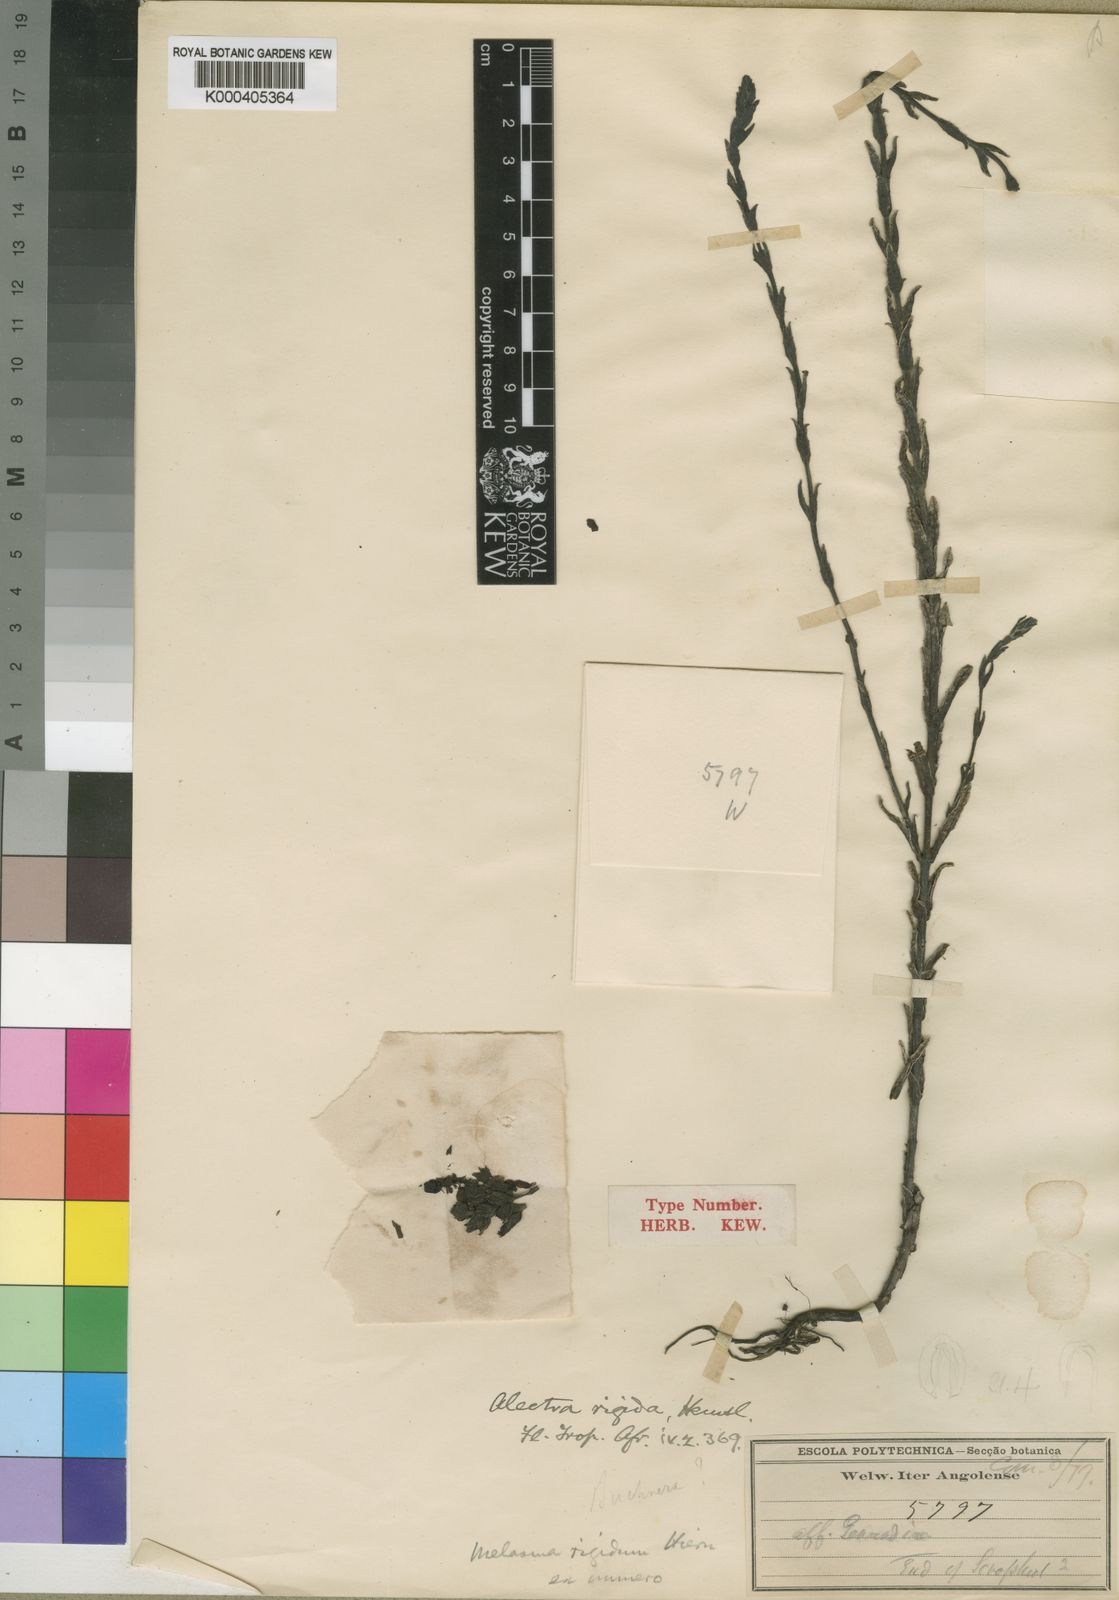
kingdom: Plantae
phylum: Tracheophyta
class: Magnoliopsida
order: Lamiales
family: Orobanchaceae
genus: Alectra
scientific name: Alectra rigida
